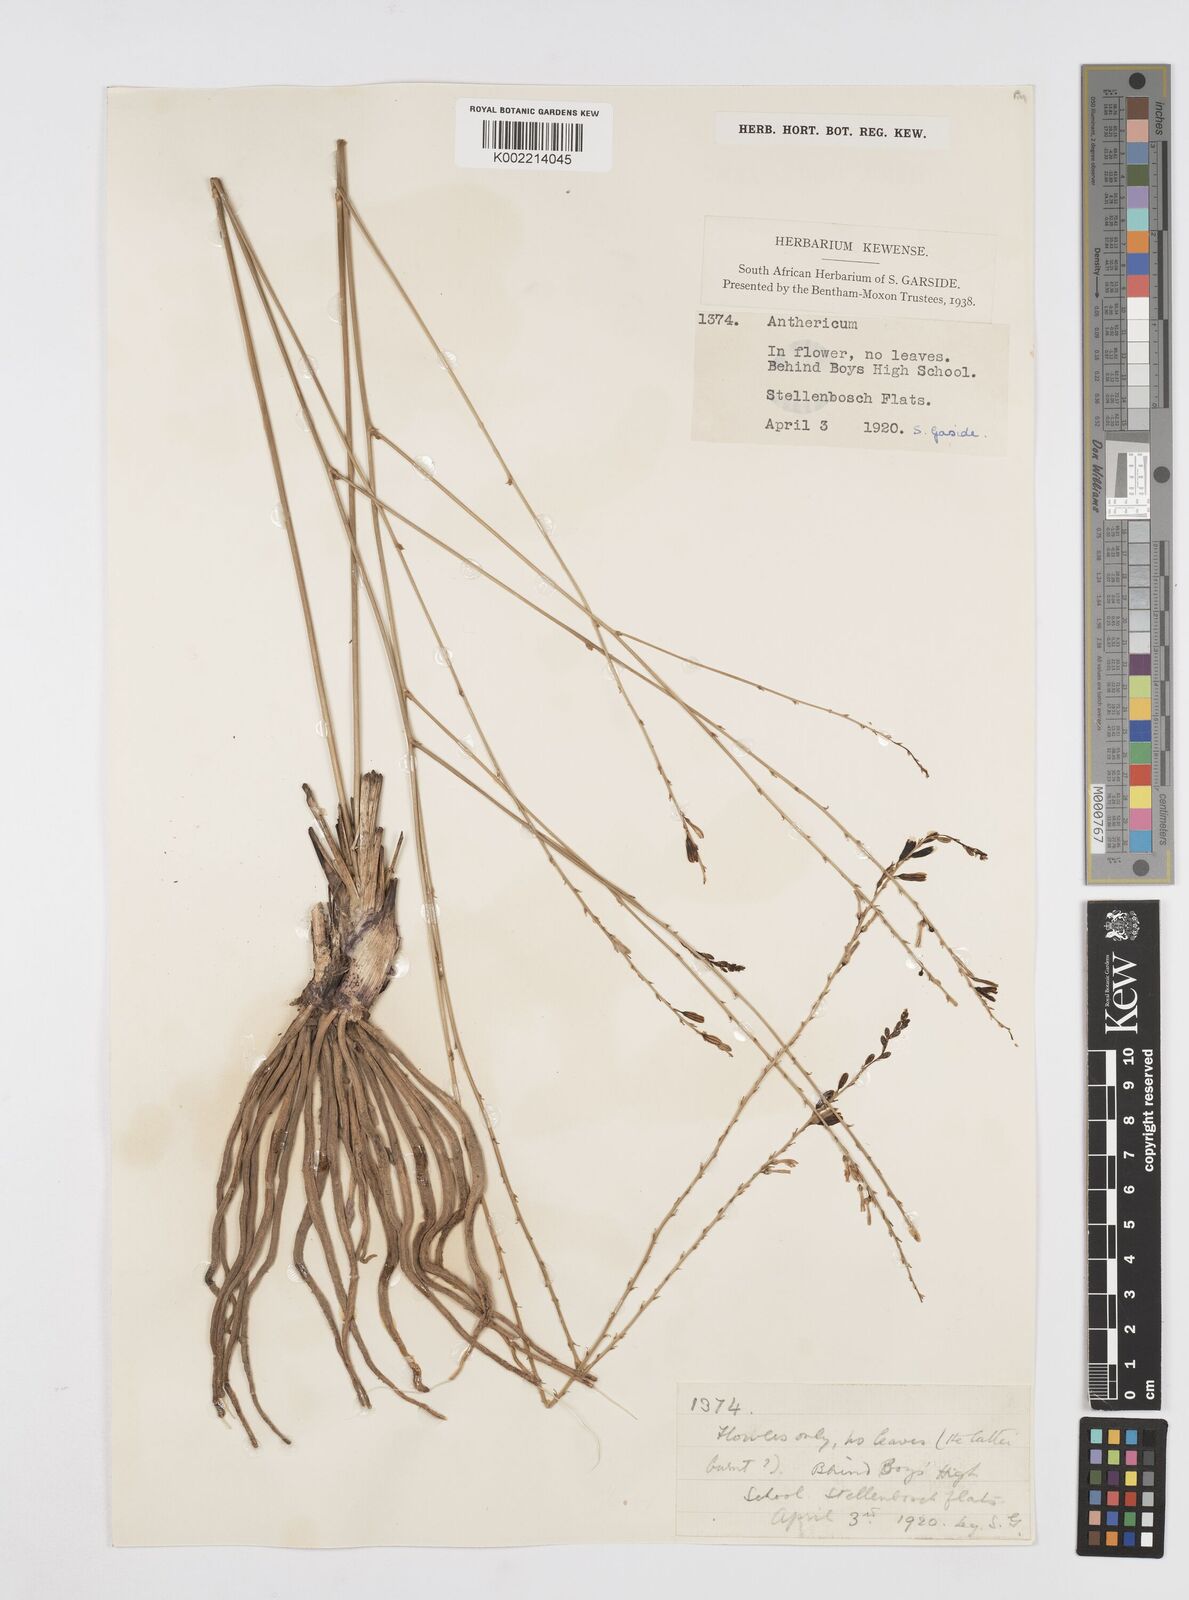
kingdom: Plantae
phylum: Tracheophyta
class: Liliopsida
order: Asparagales
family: Asphodelaceae
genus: Trachyandra
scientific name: Trachyandra
